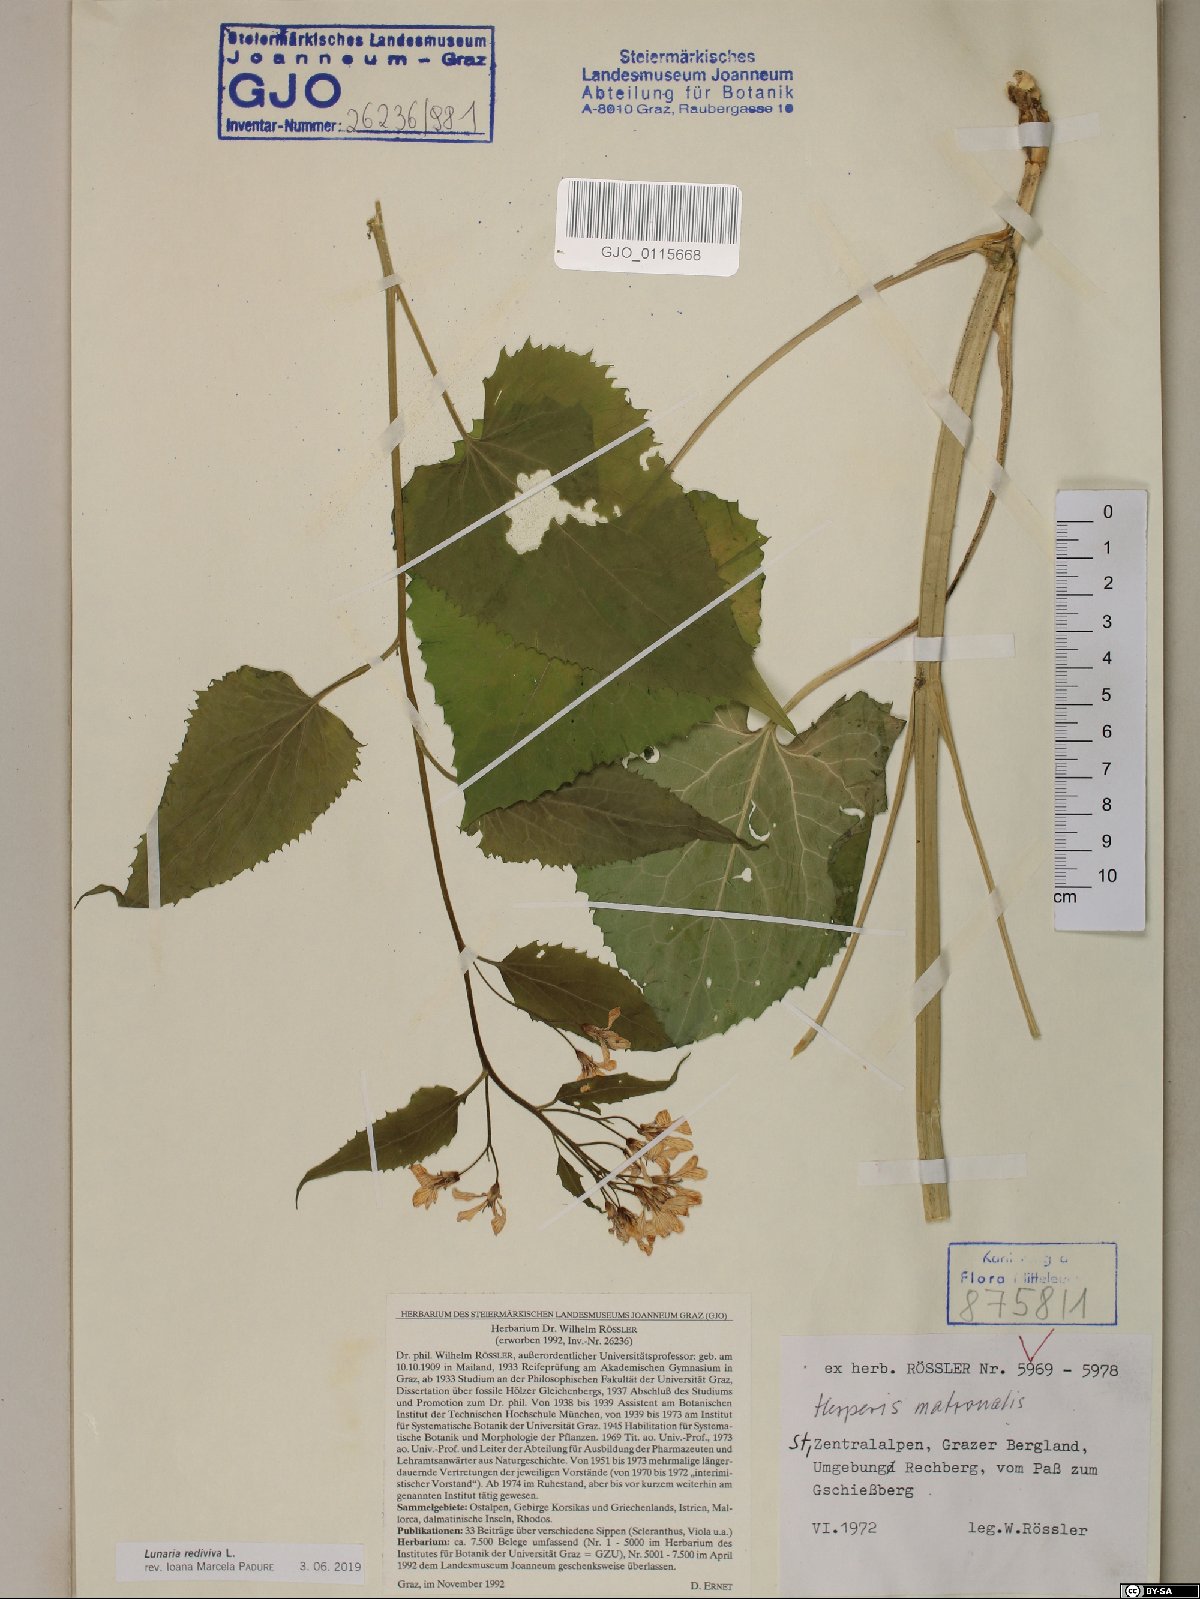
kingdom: Plantae
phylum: Tracheophyta
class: Magnoliopsida
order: Brassicales
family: Brassicaceae
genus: Lunaria
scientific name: Lunaria rediviva
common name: Perennial honesty
